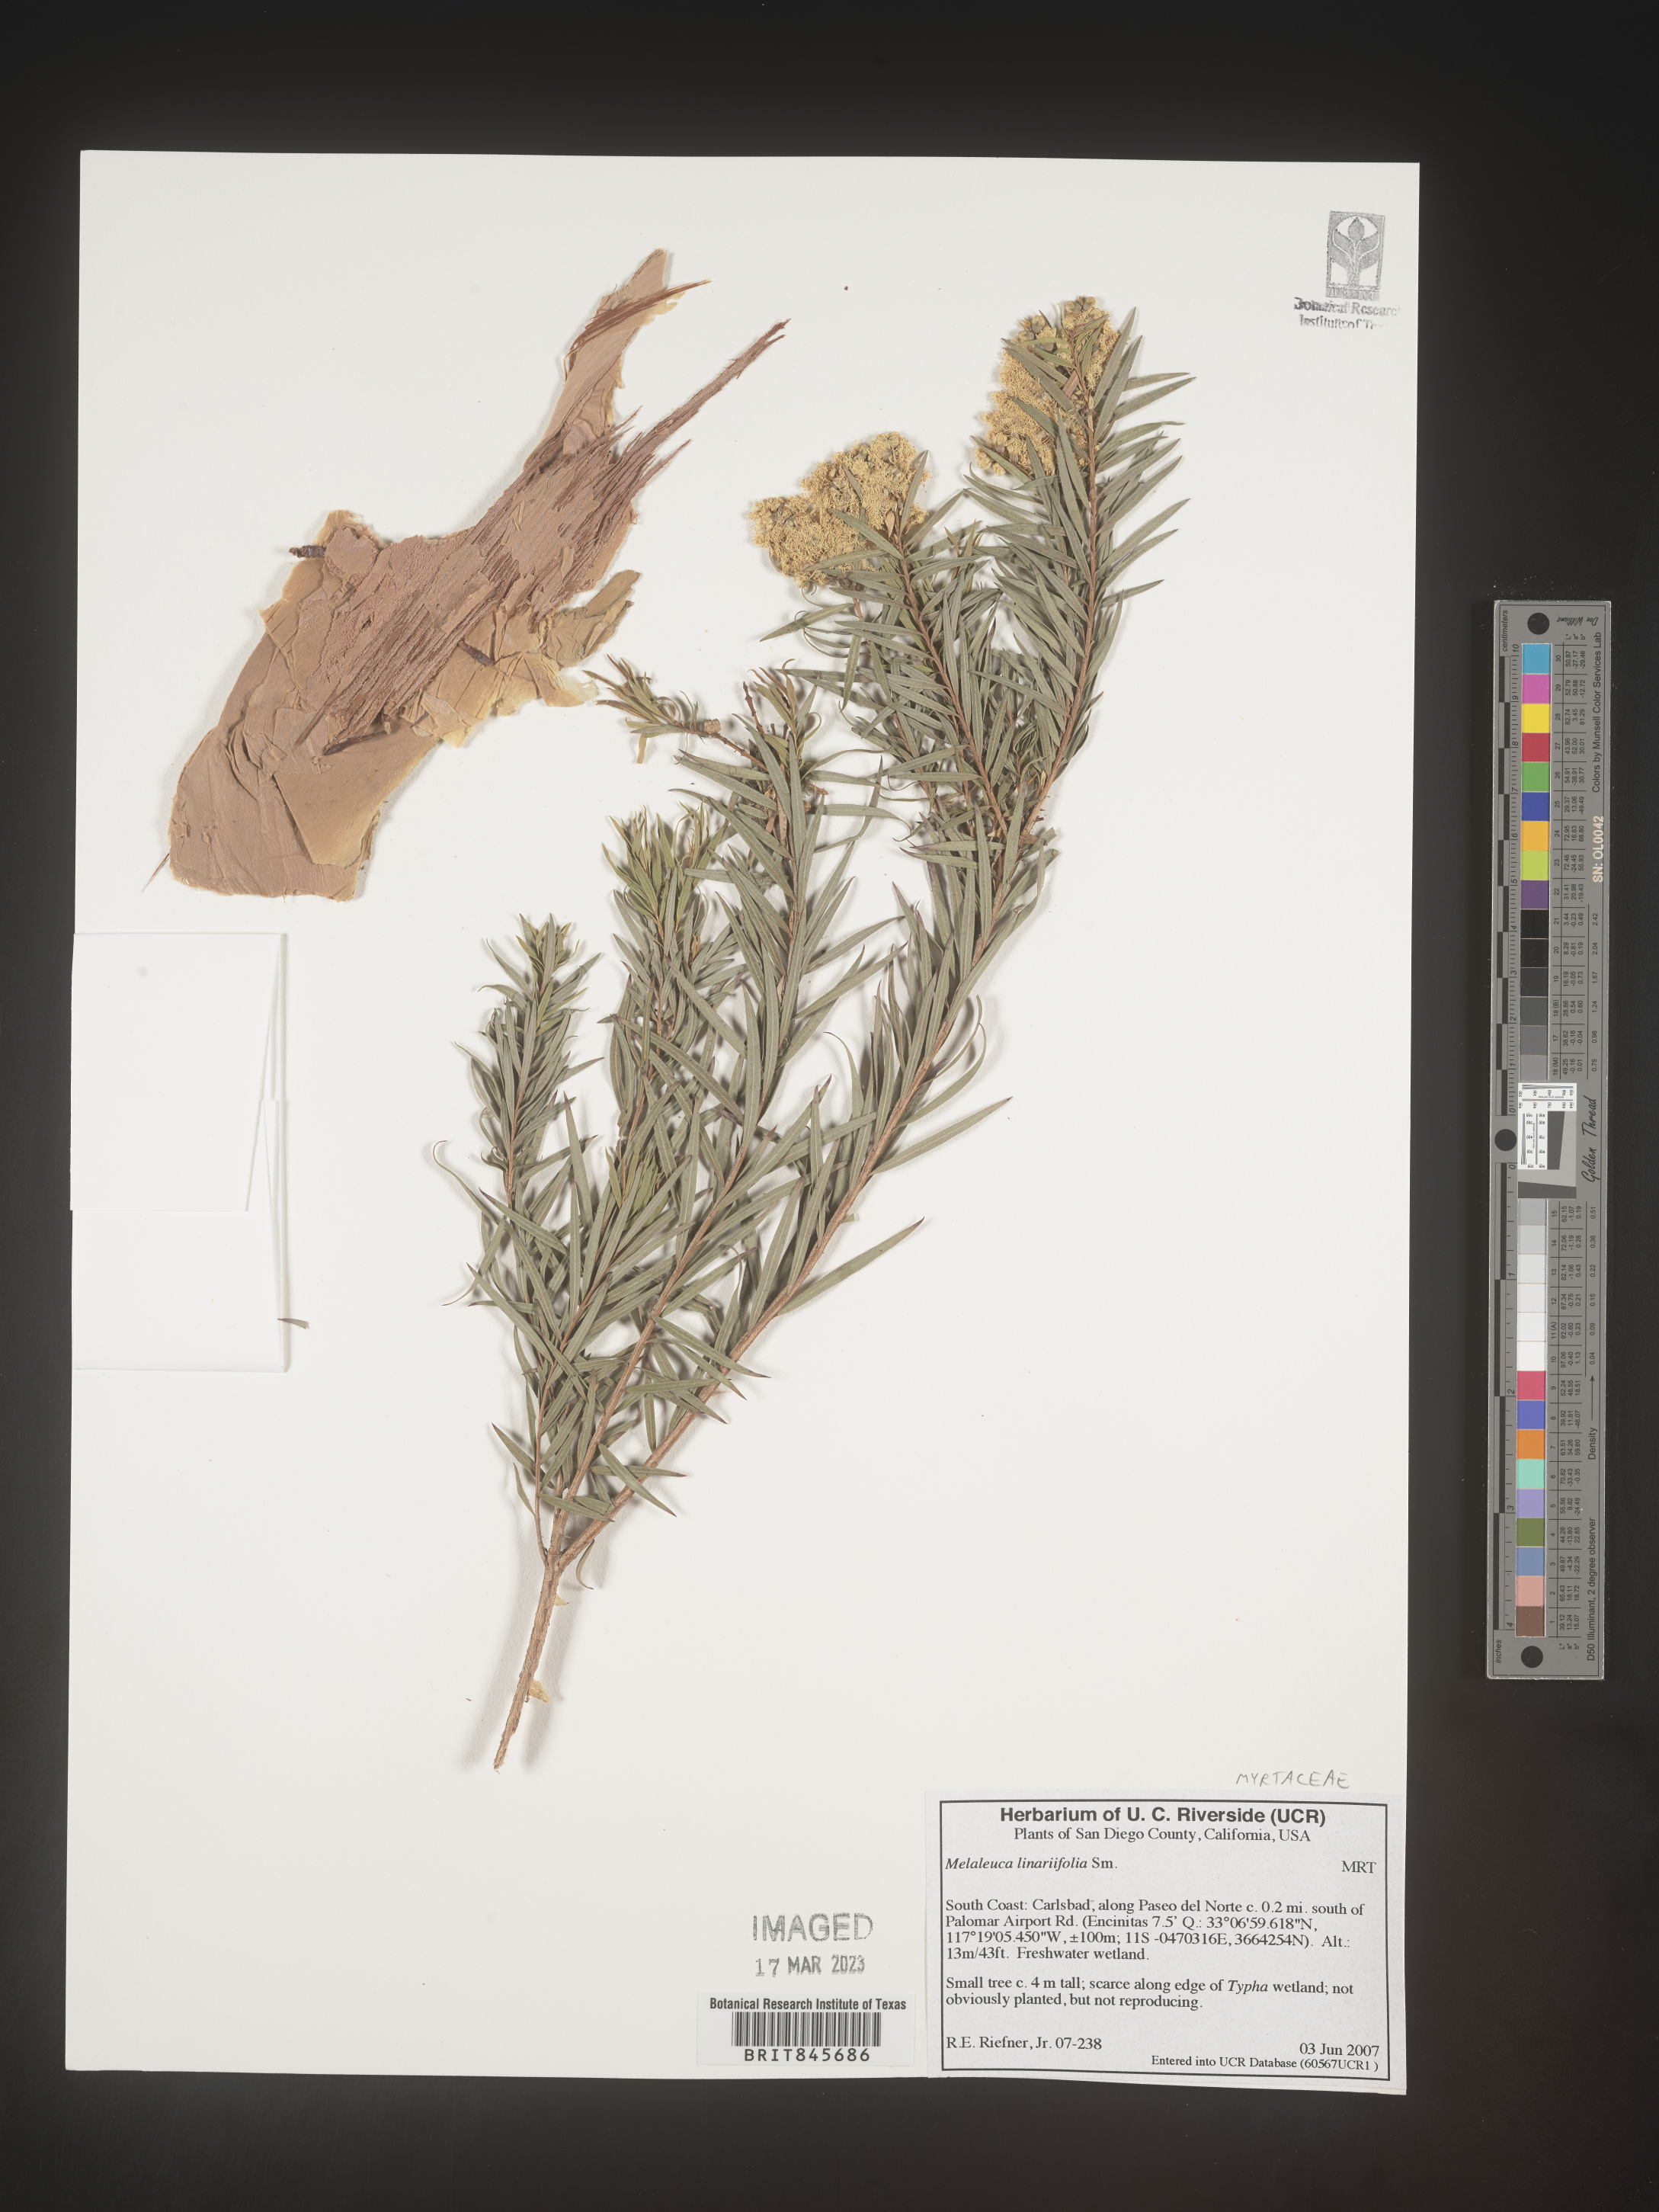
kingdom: Plantae
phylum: Tracheophyta
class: Magnoliopsida
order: Myrtales
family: Myrtaceae
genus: Melaleuca
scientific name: Melaleuca linariifolia
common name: Cajeput tree
